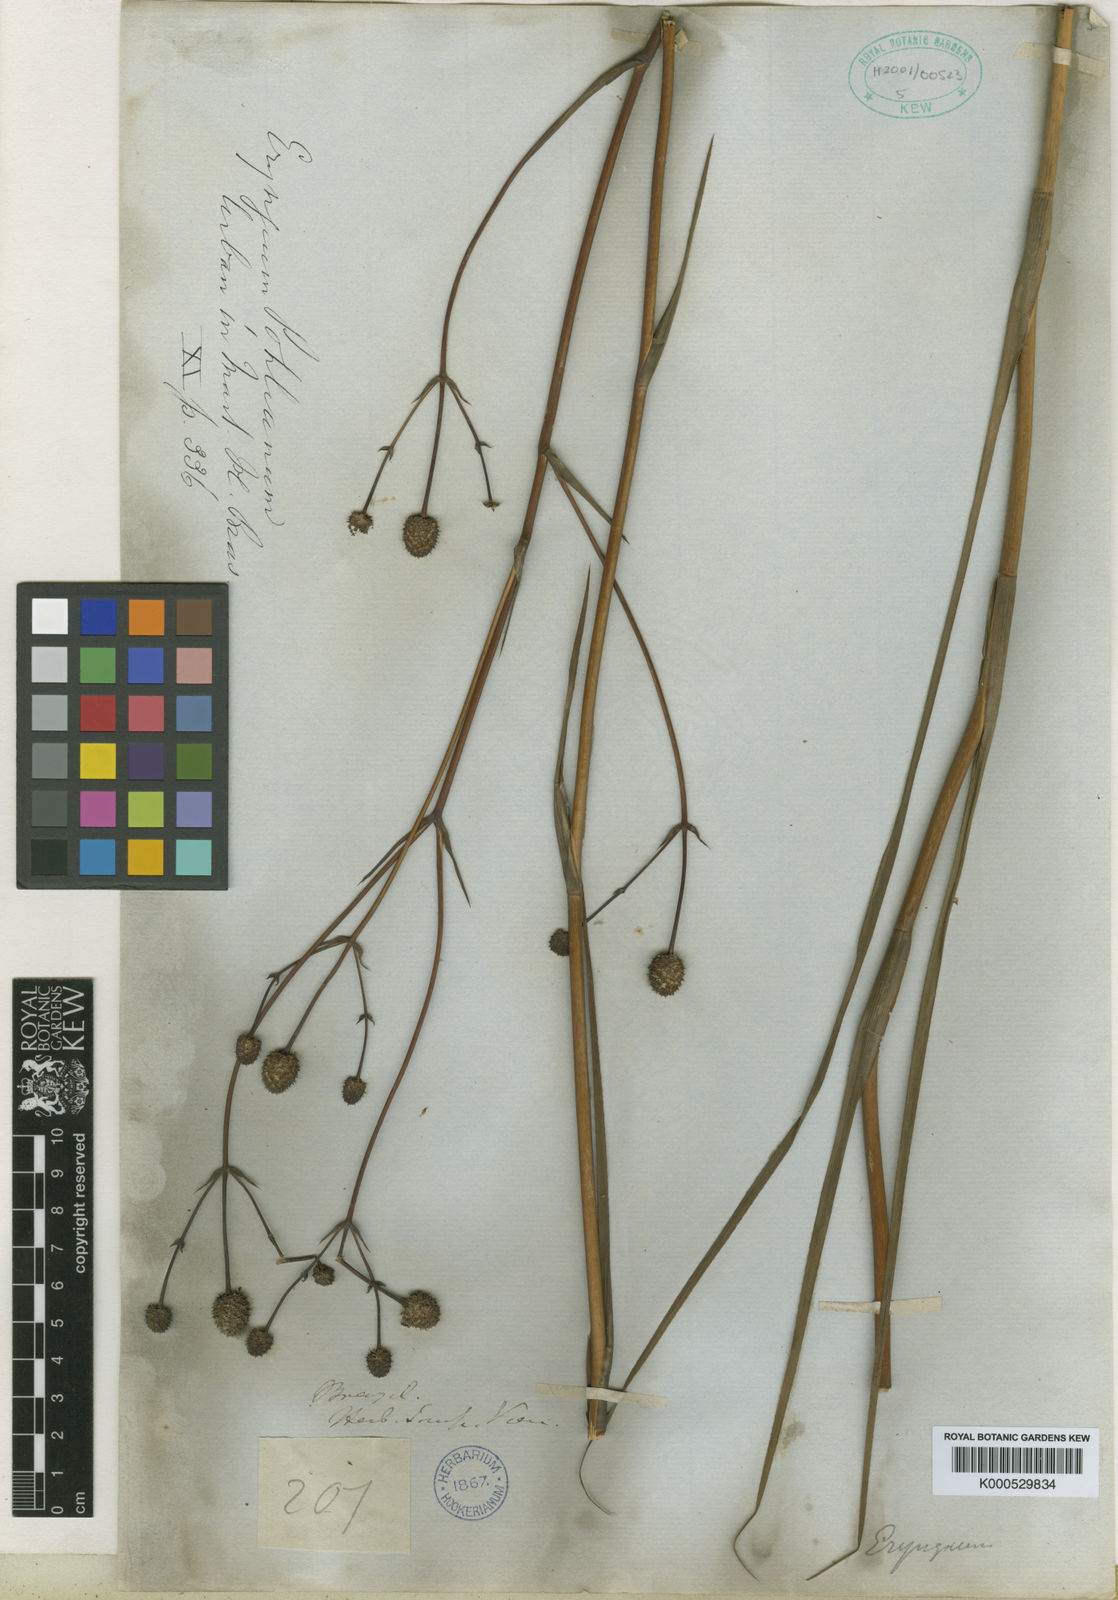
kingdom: Plantae
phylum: Tracheophyta
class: Magnoliopsida
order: Apiales
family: Apiaceae
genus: Eryngium
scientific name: Eryngium pohlianum
